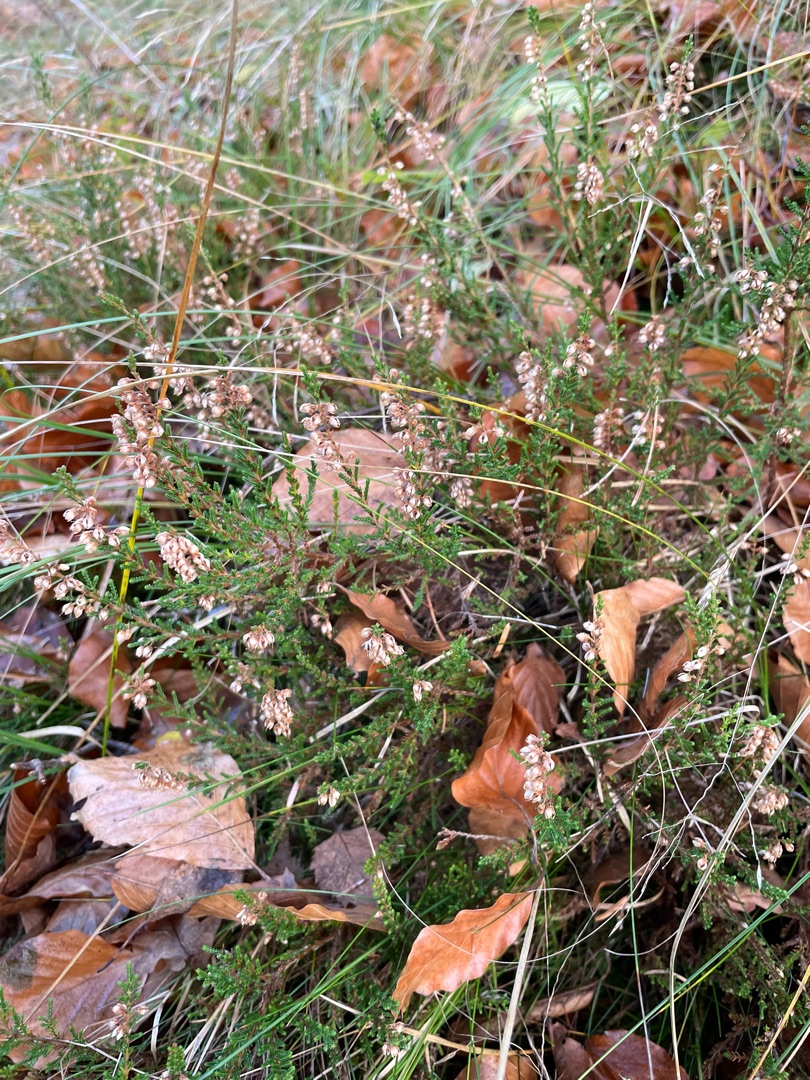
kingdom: Plantae
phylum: Tracheophyta
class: Magnoliopsida
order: Ericales
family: Ericaceae
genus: Calluna
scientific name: Calluna vulgaris
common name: Hedelyng
